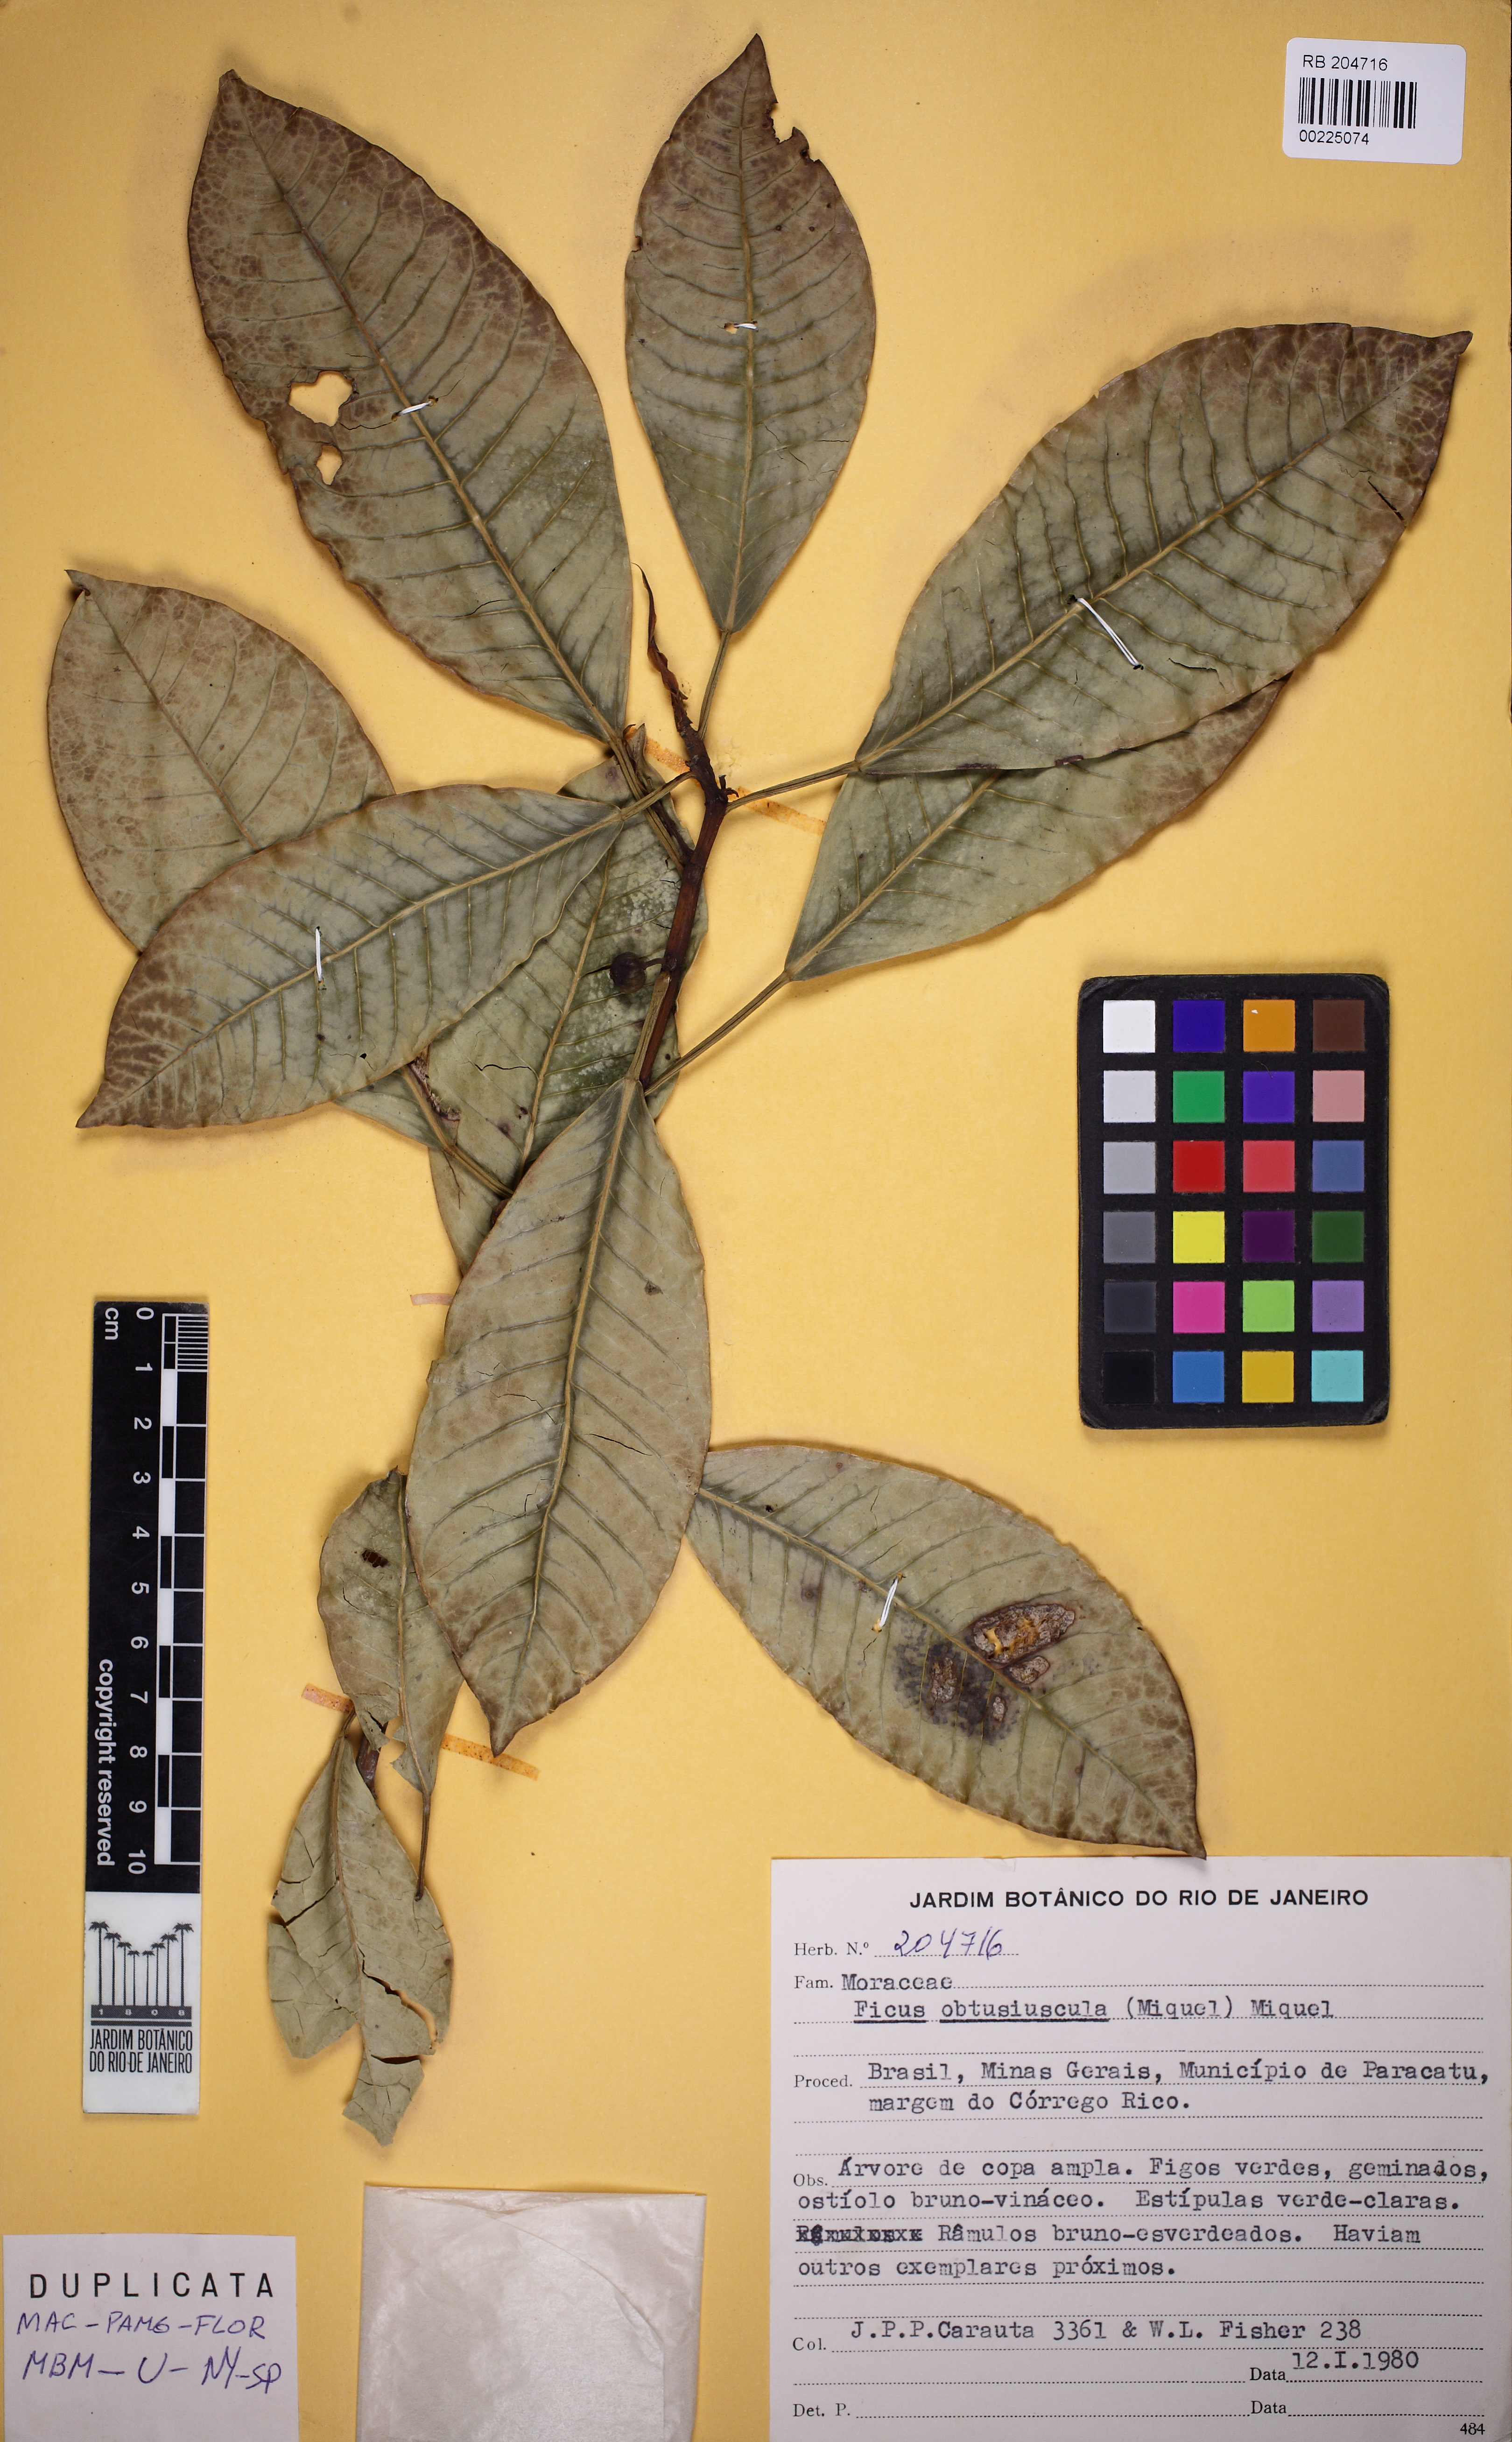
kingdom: Plantae
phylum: Tracheophyta
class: Magnoliopsida
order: Rosales
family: Moraceae
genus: Ficus
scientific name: Ficus obtusiuscula
